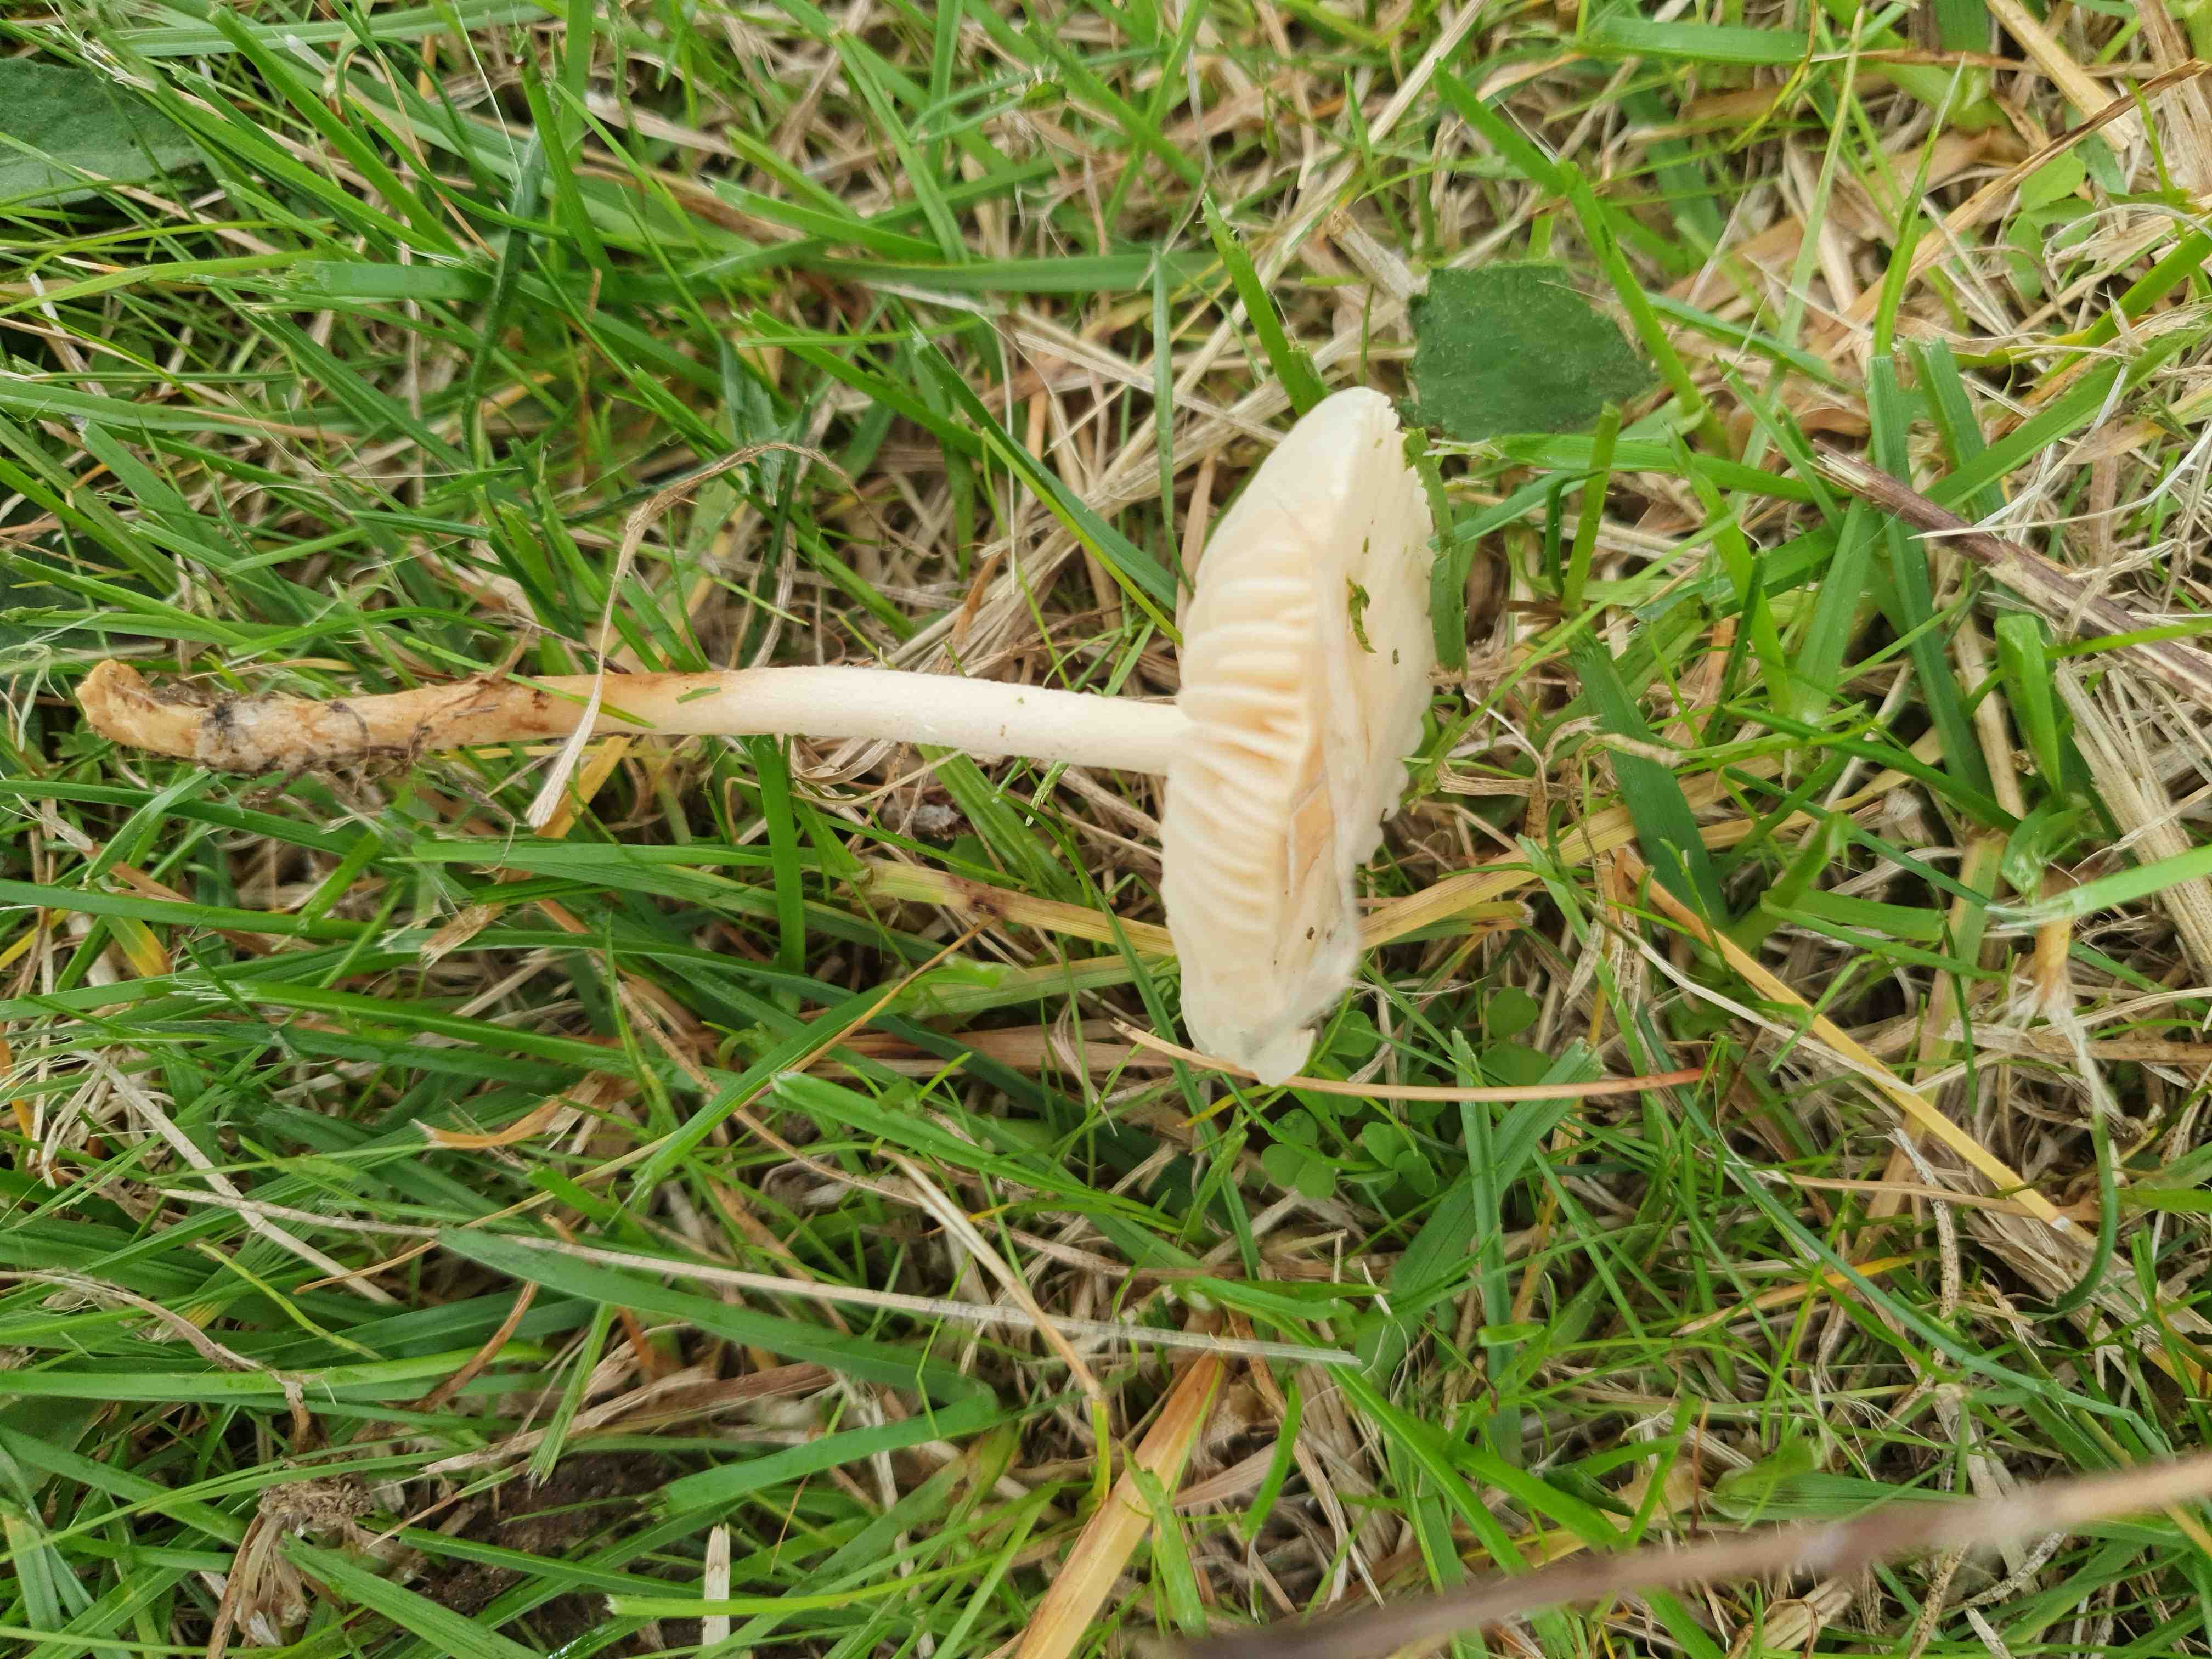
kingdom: Fungi
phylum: Basidiomycota
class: Agaricomycetes
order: Agaricales
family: Marasmiaceae
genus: Marasmius
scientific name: Marasmius oreades
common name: elledans-bruskhat
